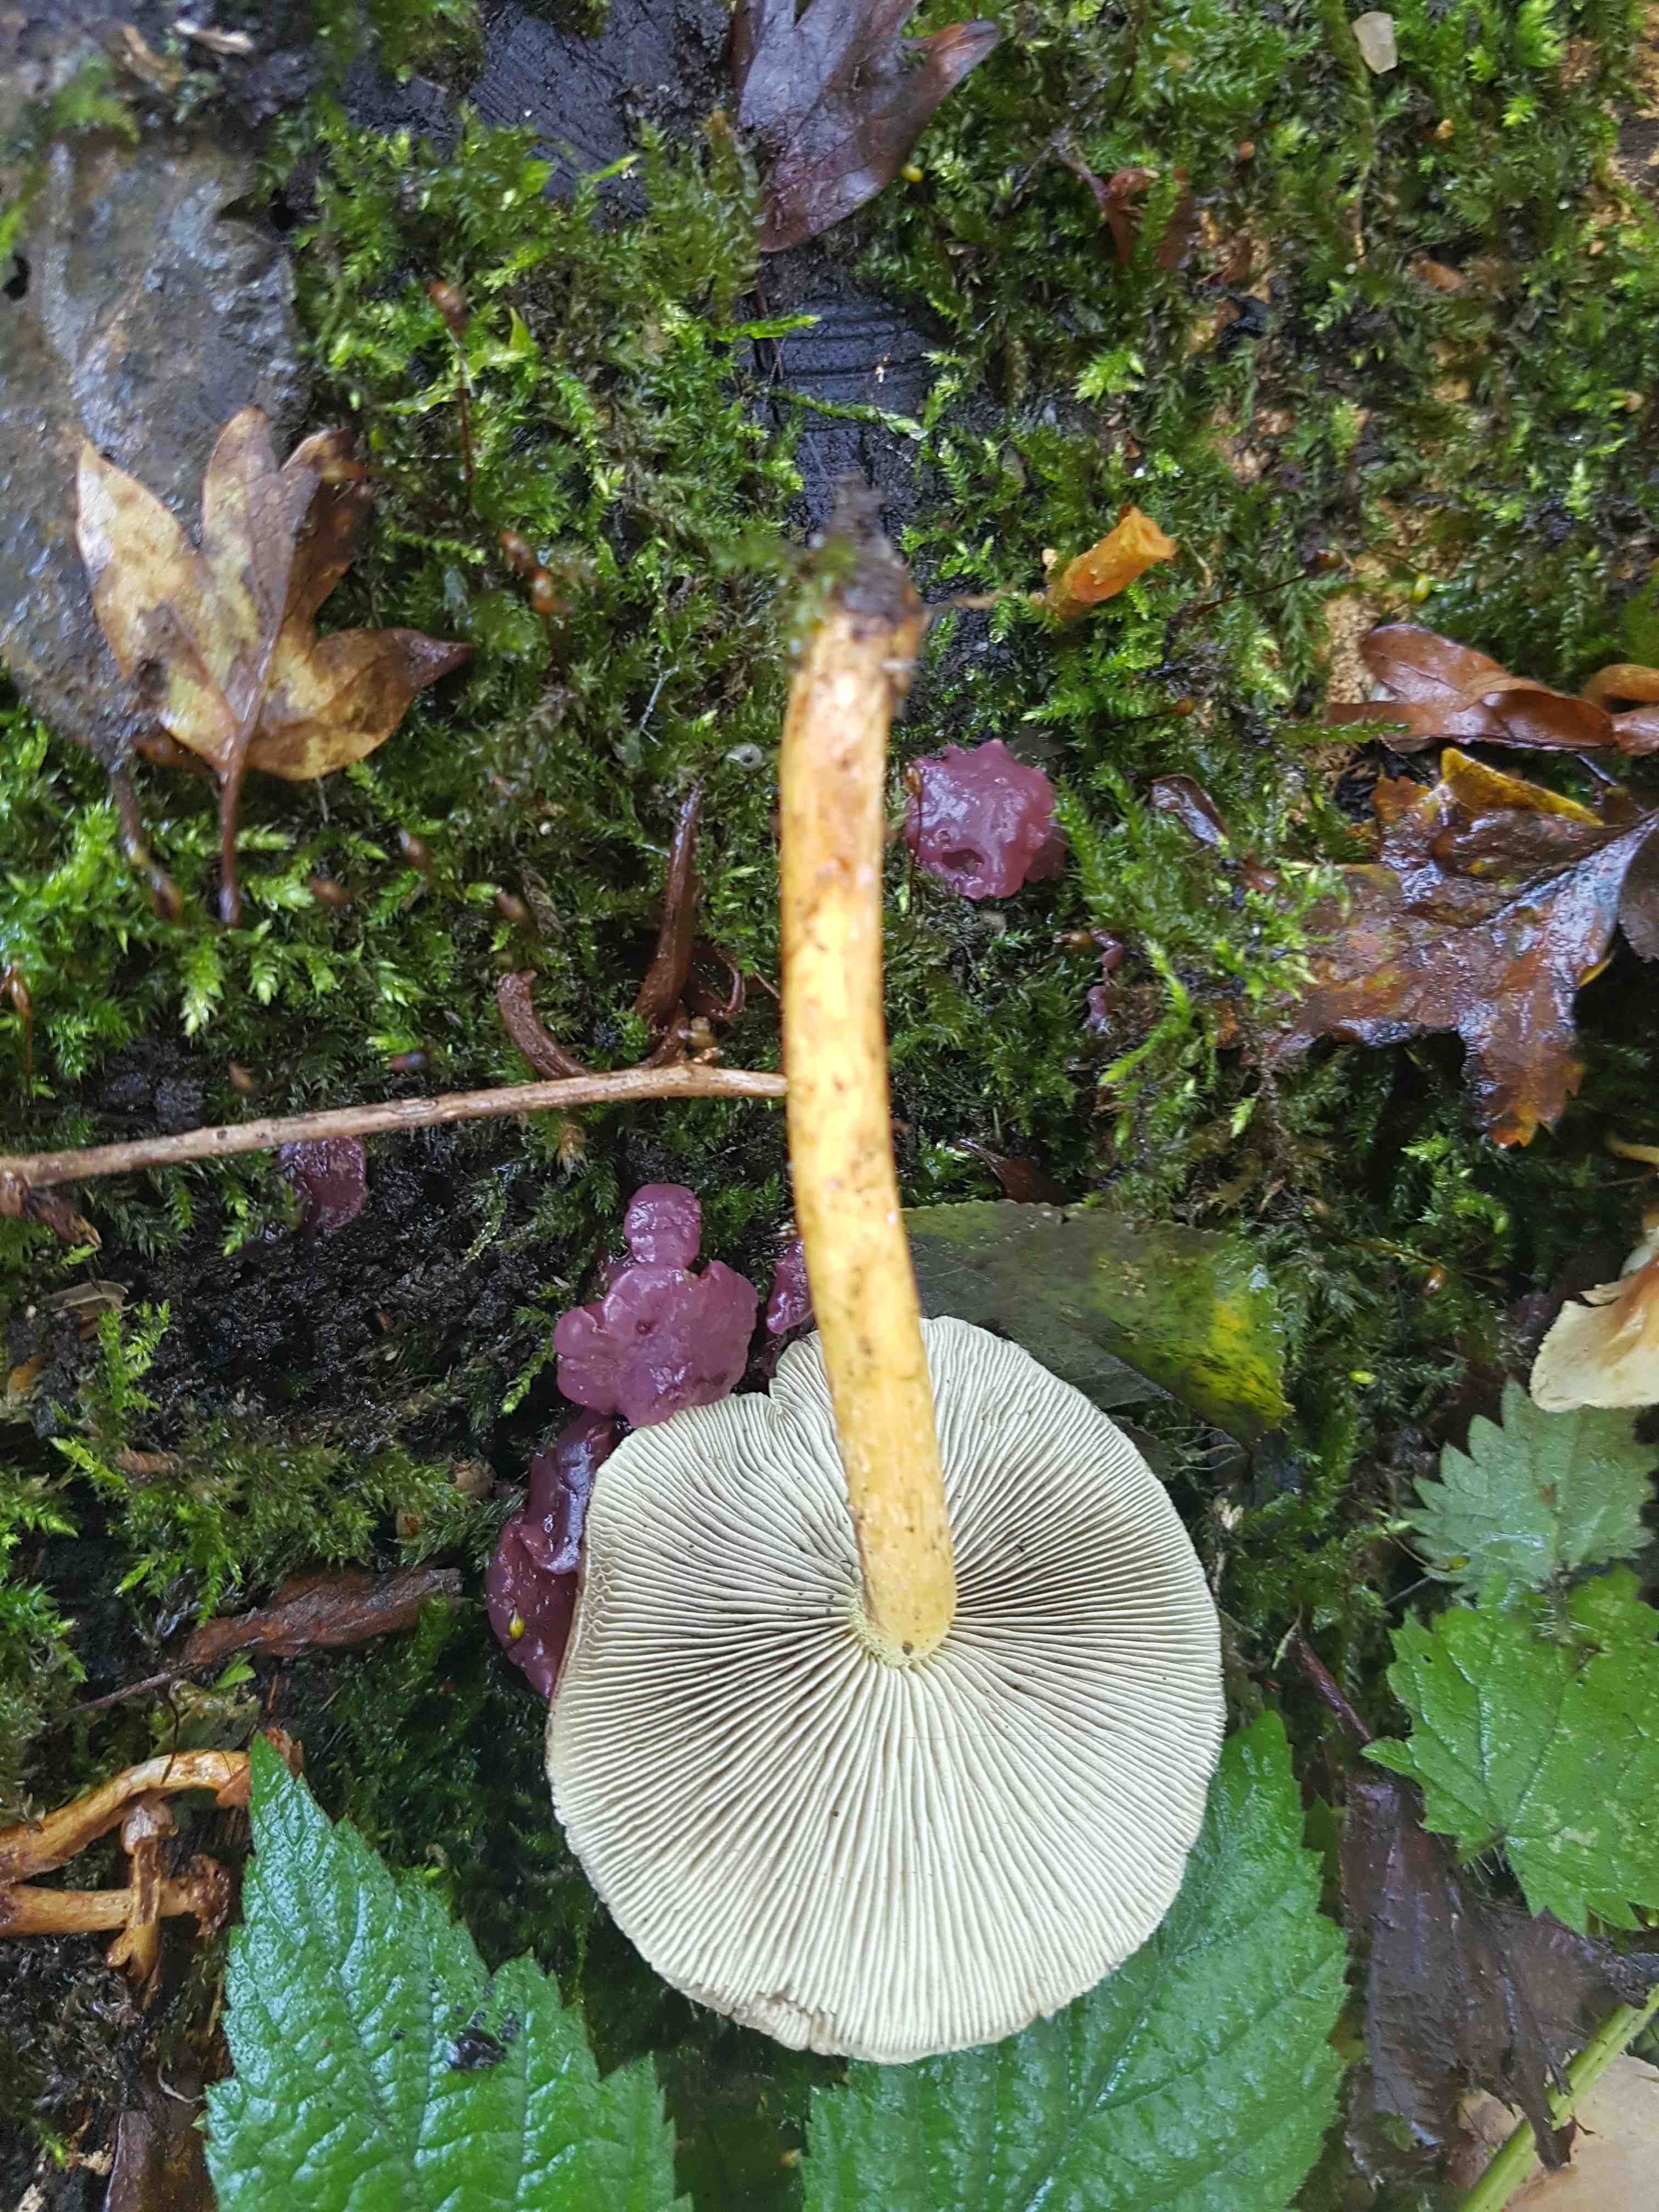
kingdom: Fungi
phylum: Basidiomycota
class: Agaricomycetes
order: Agaricales
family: Strophariaceae
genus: Hypholoma
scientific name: Hypholoma fasciculare
